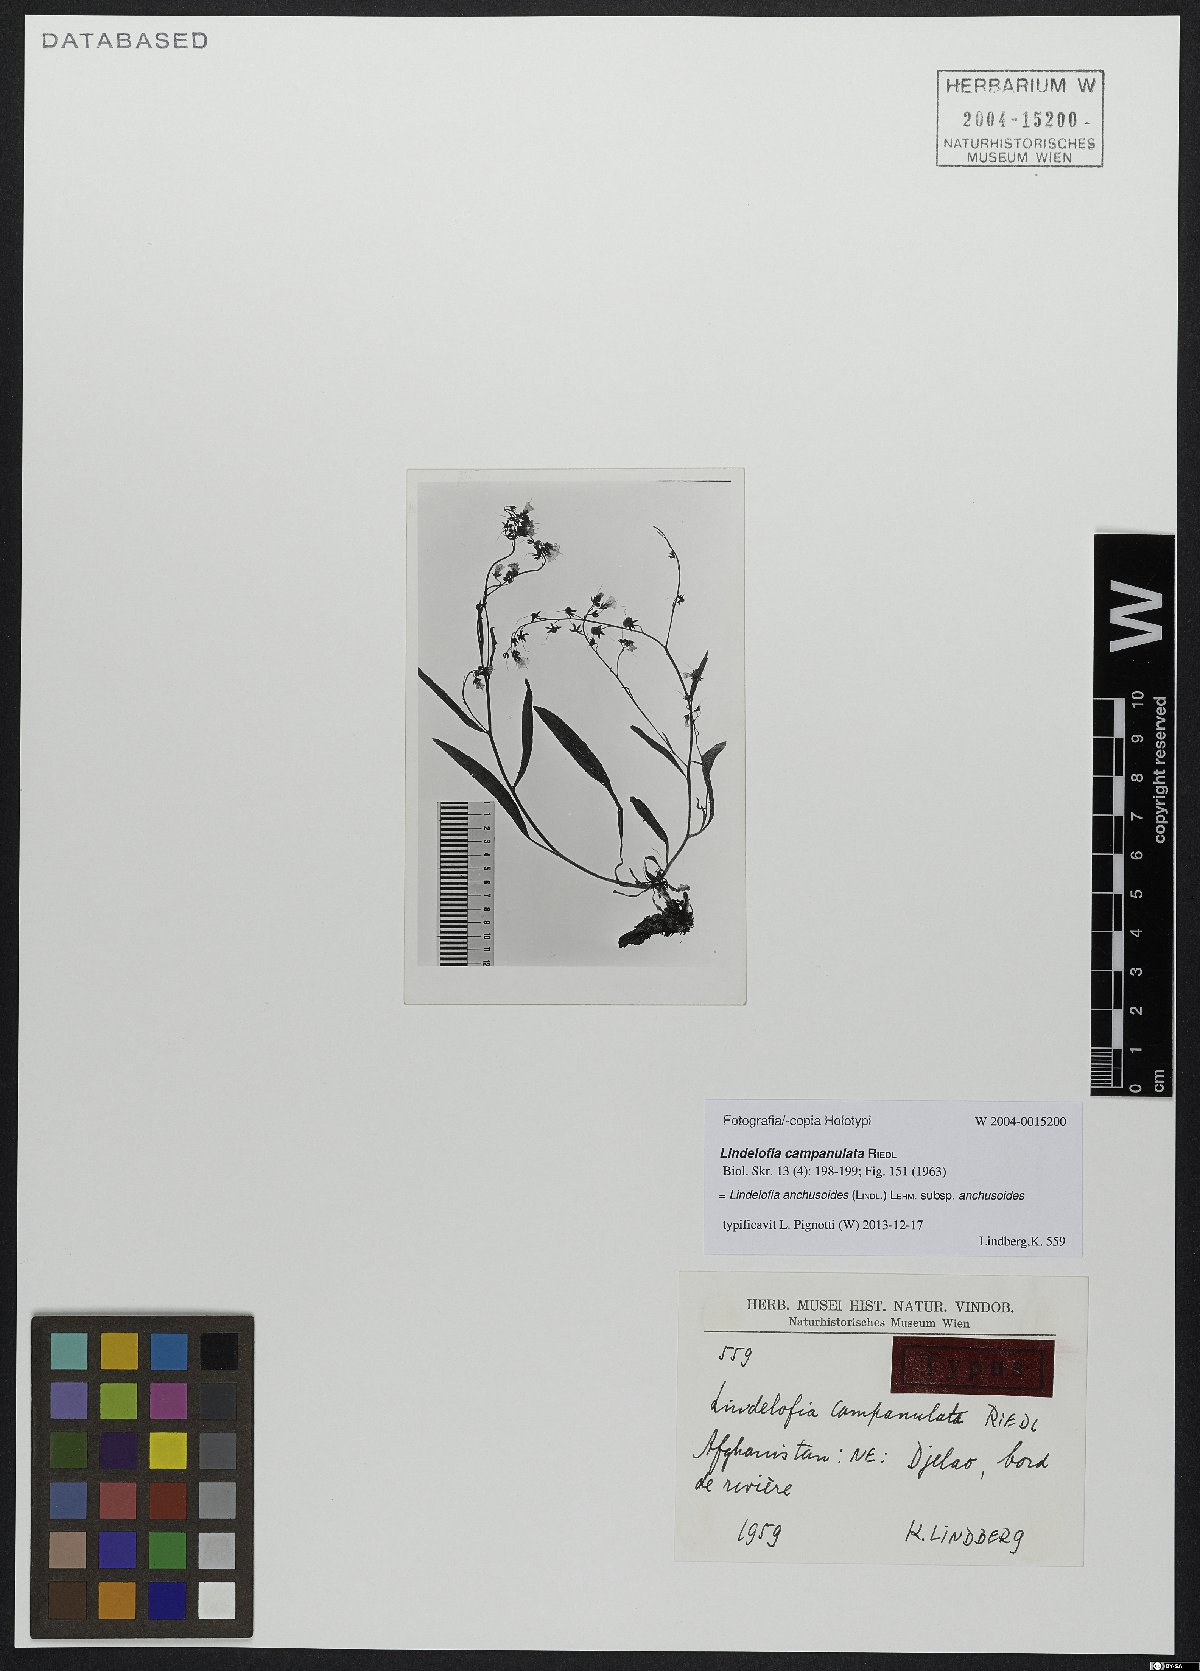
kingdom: Plantae
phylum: Tracheophyta
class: Magnoliopsida
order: Boraginales
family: Boraginaceae
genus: Lindelofia
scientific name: Lindelofia anchusoides
